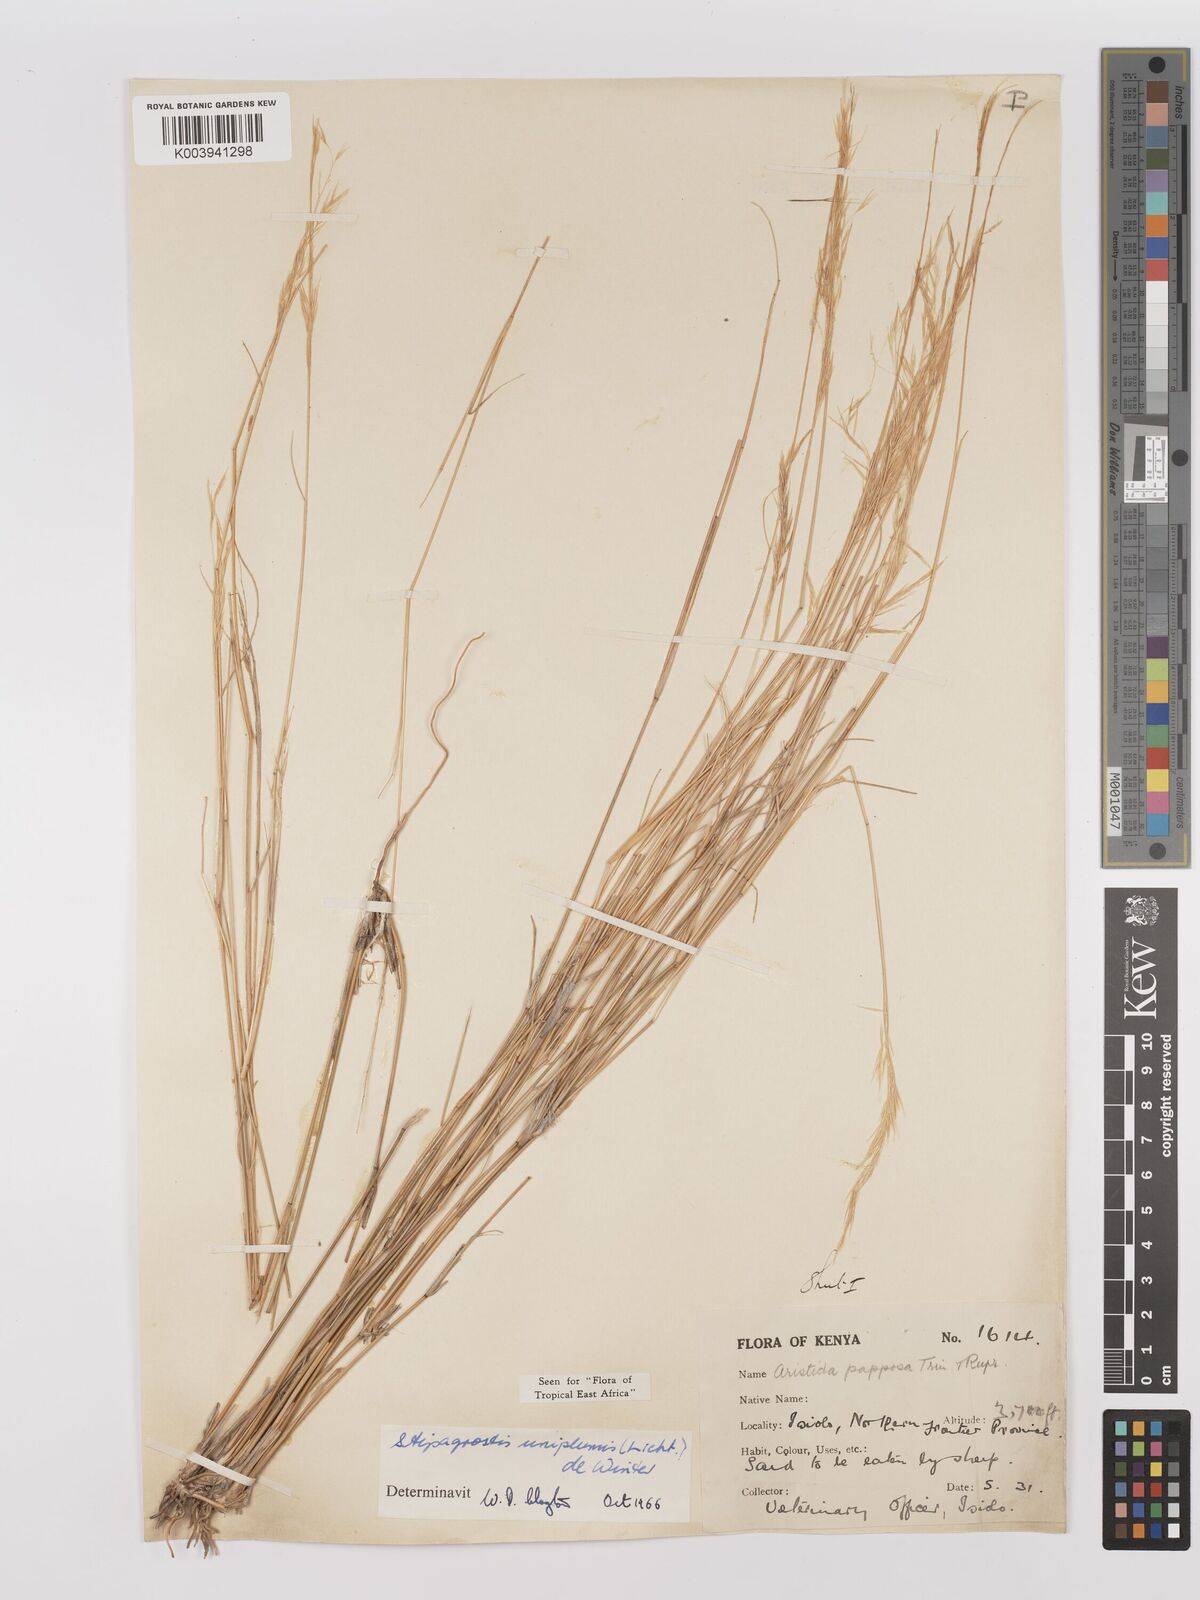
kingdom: Plantae
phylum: Tracheophyta
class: Liliopsida
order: Poales
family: Poaceae
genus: Stipagrostis
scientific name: Stipagrostis uniplumis
